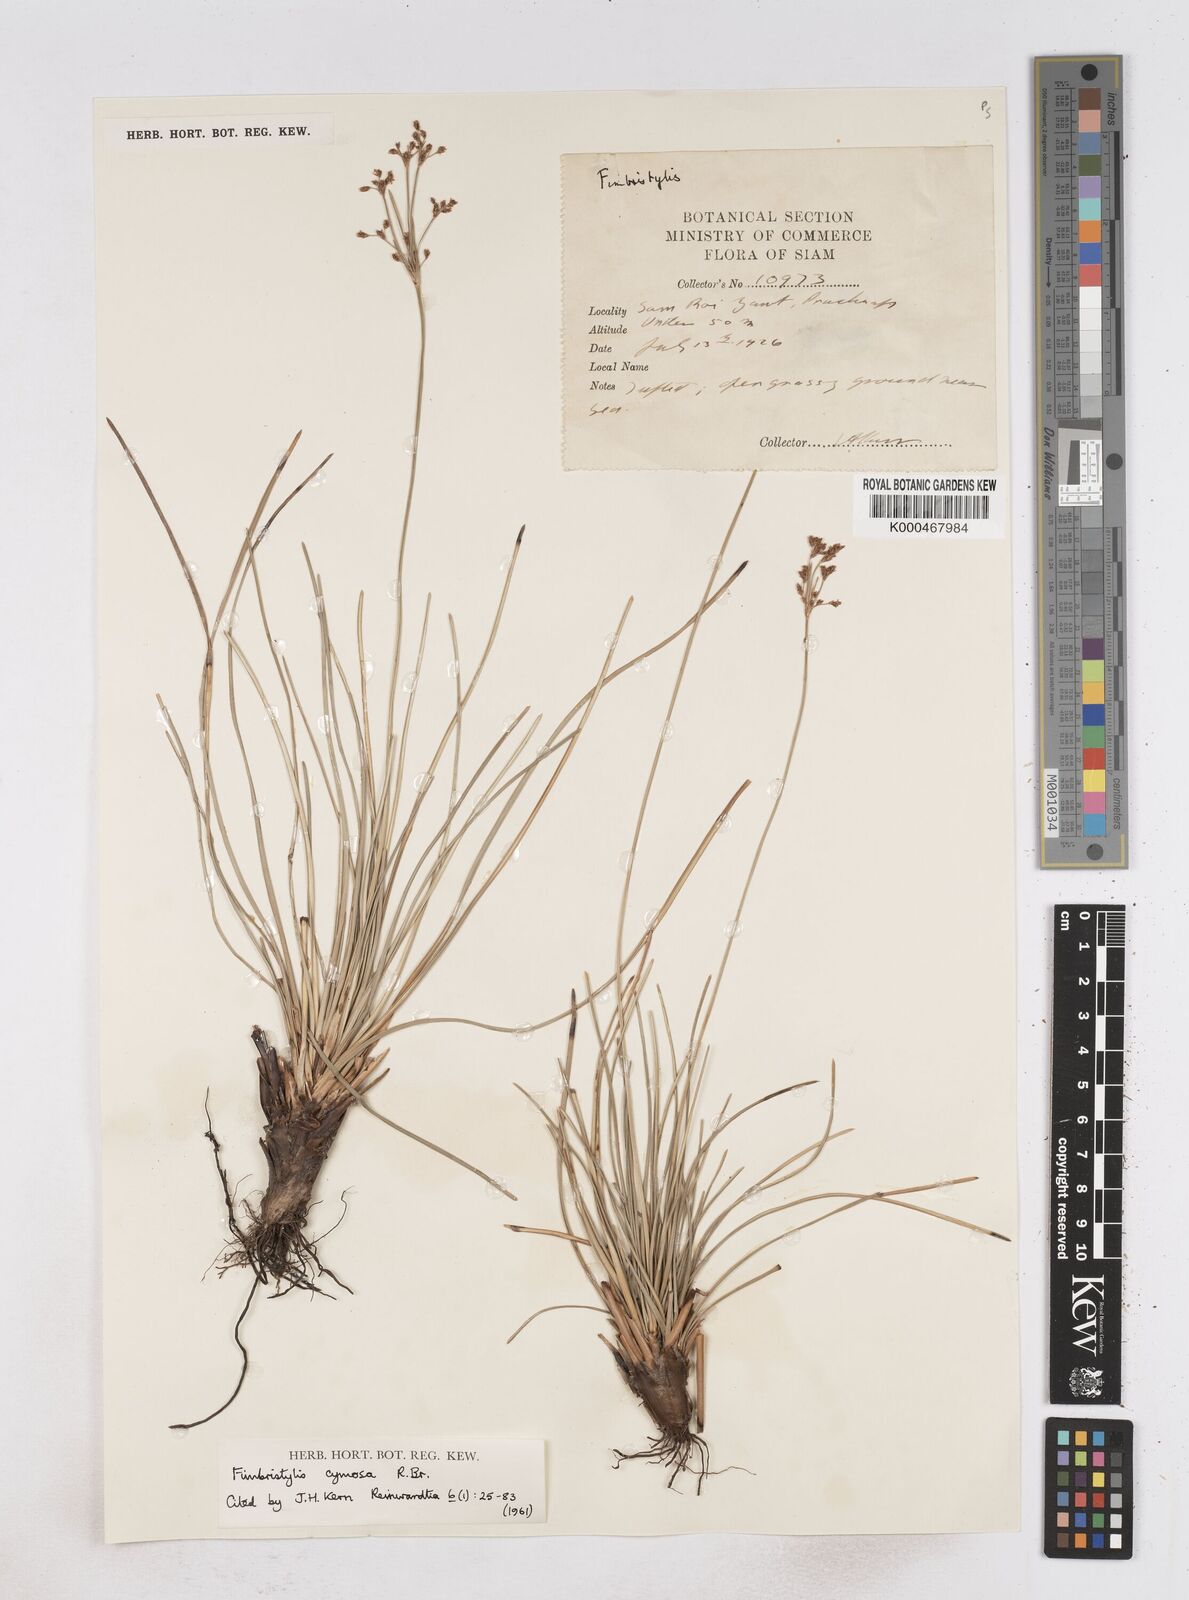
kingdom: Plantae
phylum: Tracheophyta
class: Liliopsida
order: Poales
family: Cyperaceae
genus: Fimbristylis
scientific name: Fimbristylis cymosa
